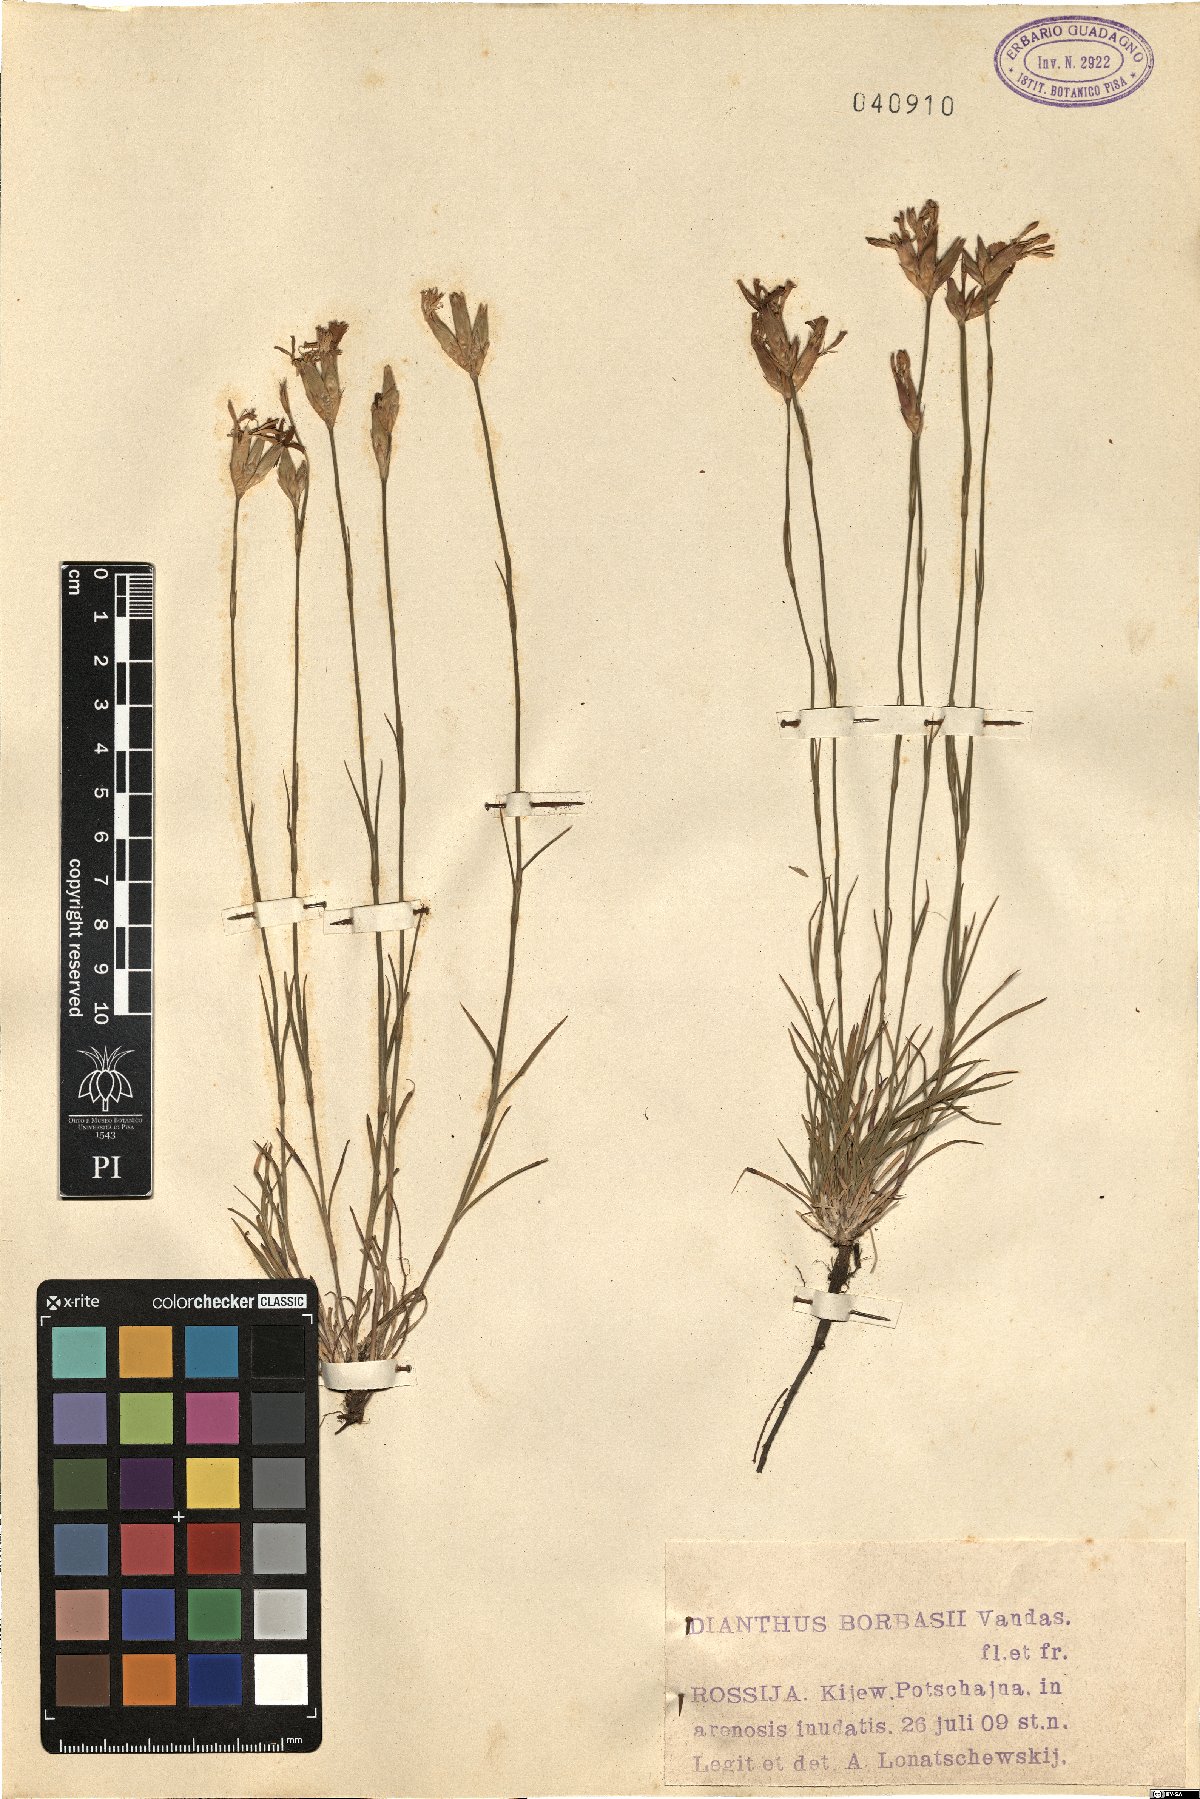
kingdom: Plantae
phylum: Tracheophyta
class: Magnoliopsida
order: Caryophyllales
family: Caryophyllaceae
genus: Dianthus
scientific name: Dianthus borbasii
